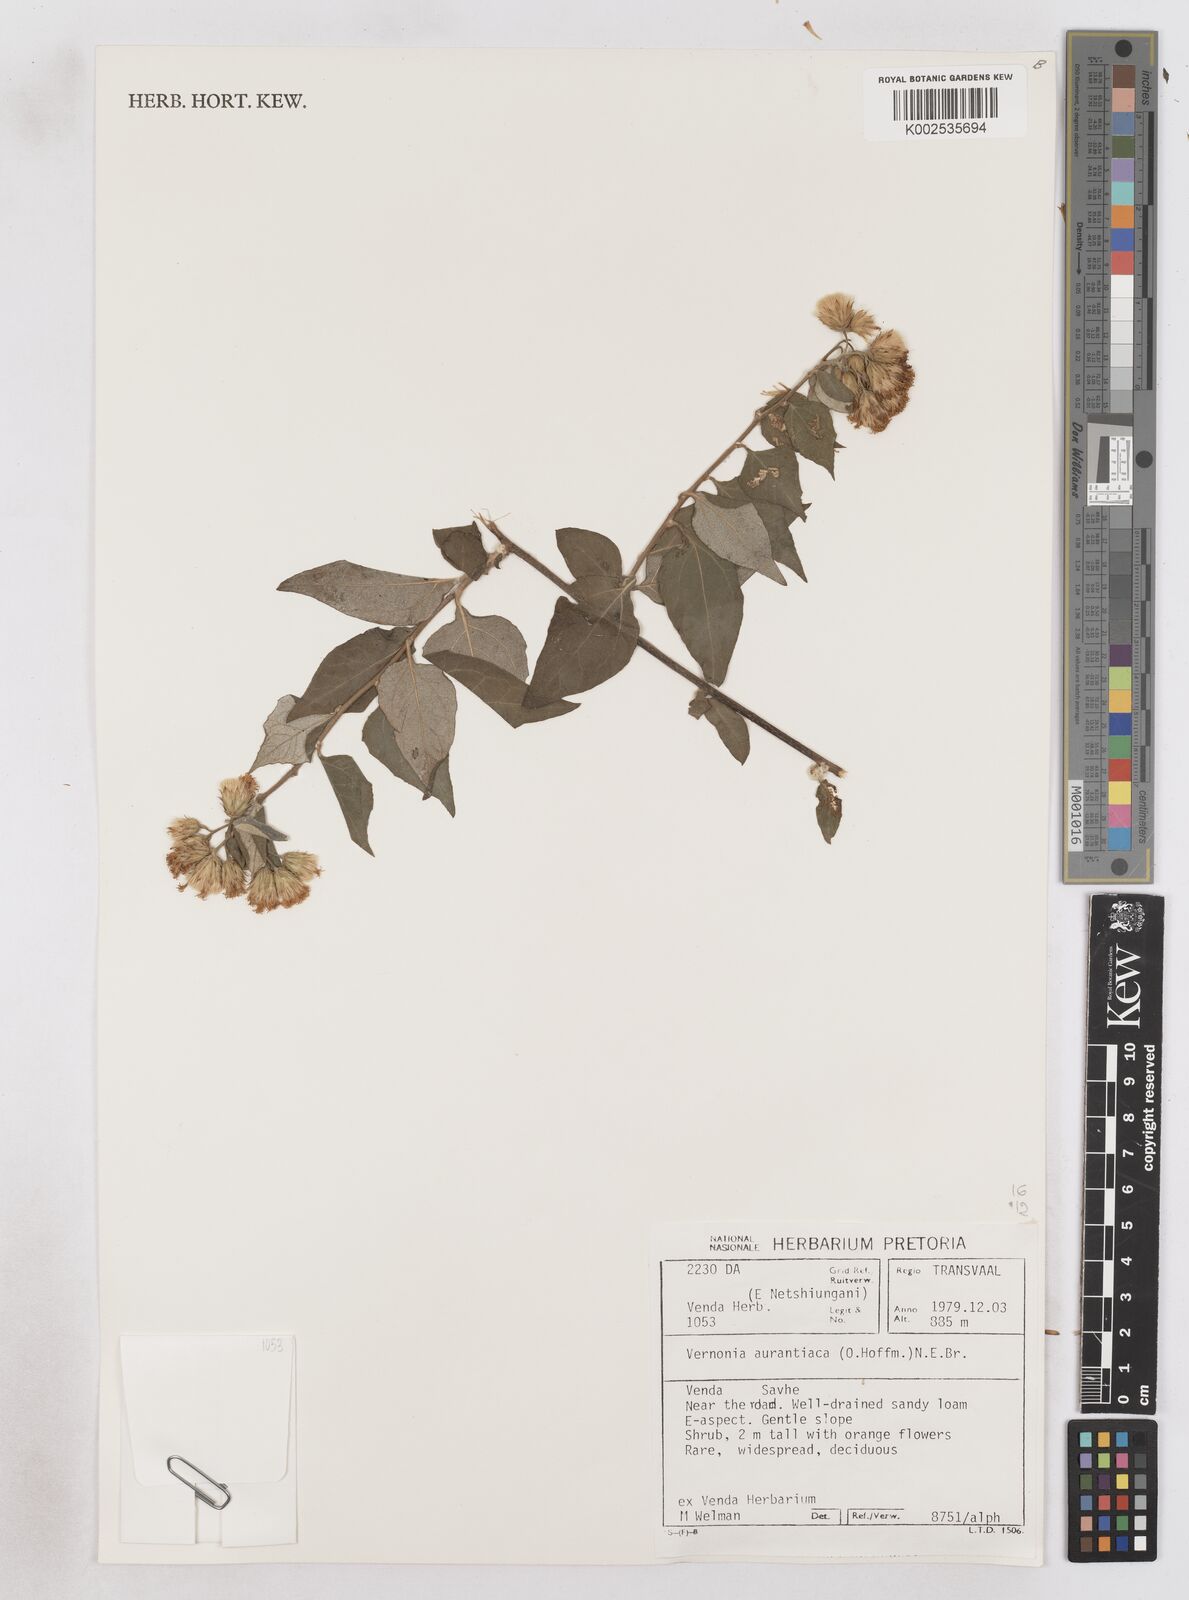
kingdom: Plantae
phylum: Tracheophyta
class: Magnoliopsida
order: Asterales
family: Asteraceae
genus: Distephanus
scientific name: Distephanus
